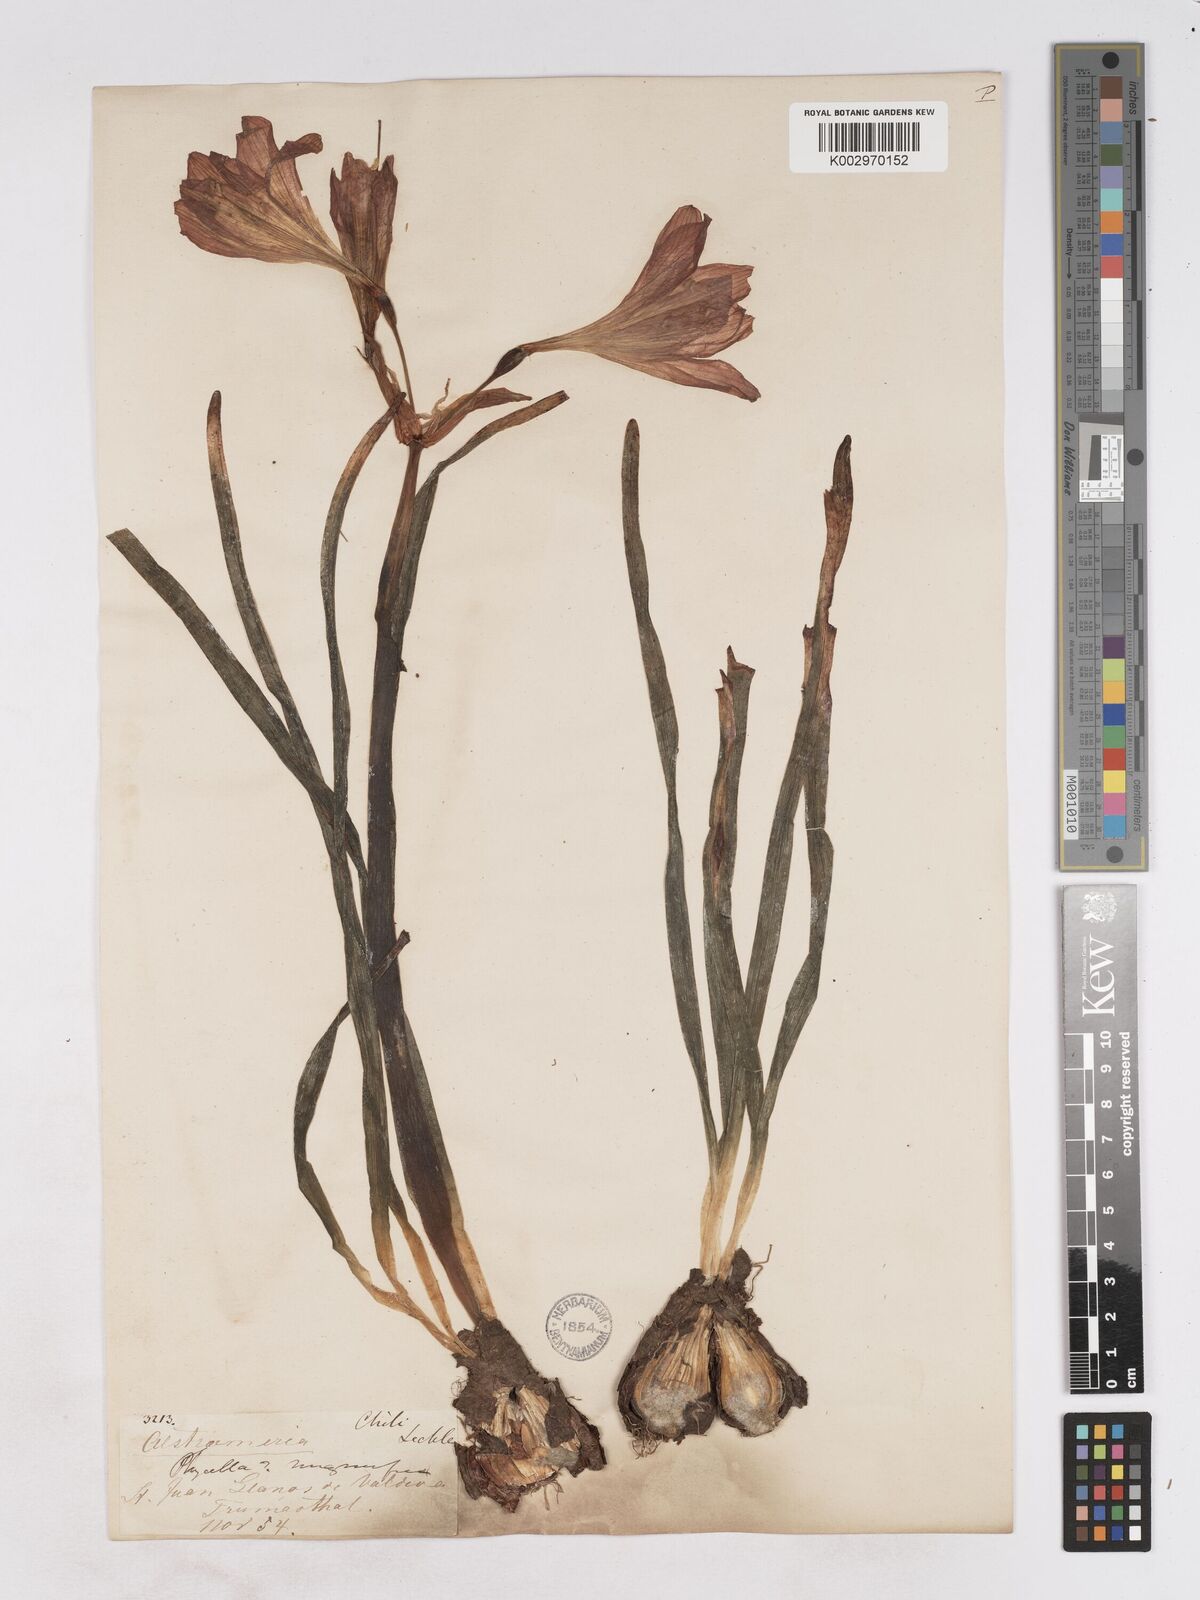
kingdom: Plantae
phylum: Tracheophyta
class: Liliopsida
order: Asparagales
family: Amaryllidaceae
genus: Phycella
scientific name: Phycella chilensis
